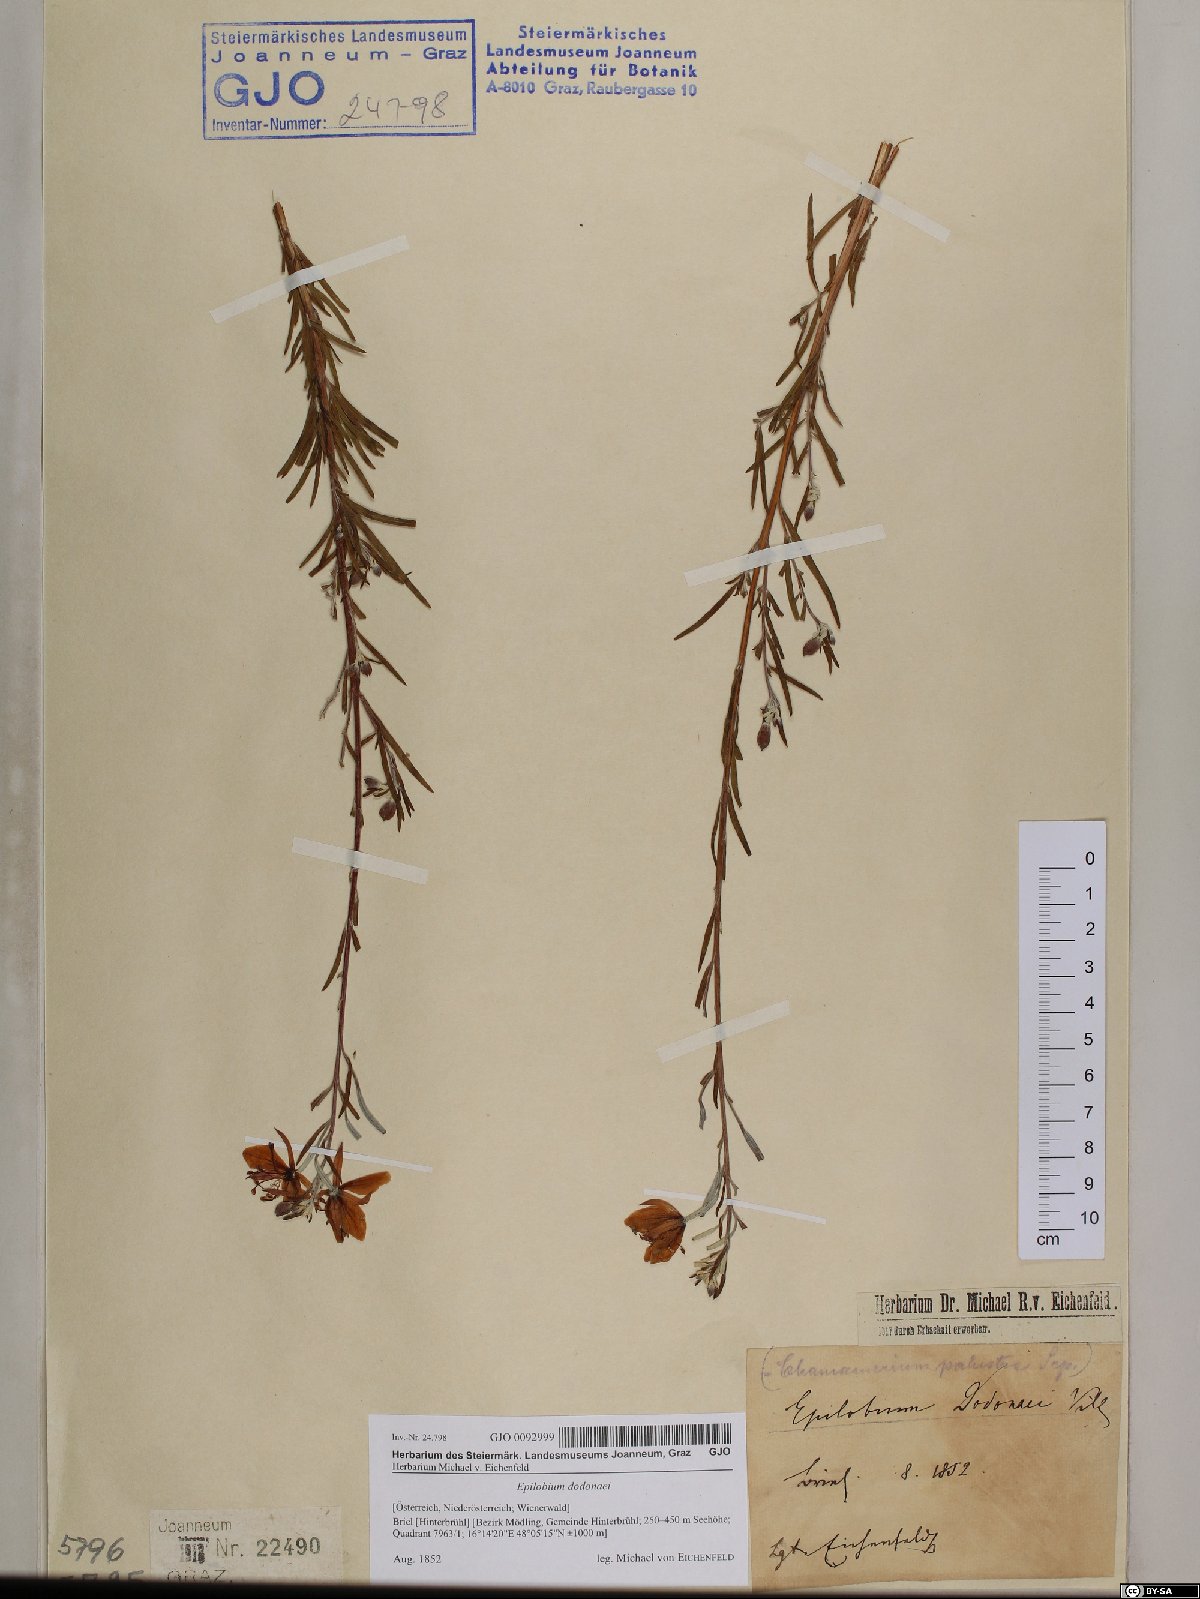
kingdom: Plantae
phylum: Tracheophyta
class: Magnoliopsida
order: Myrtales
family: Onagraceae
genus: Chamaenerion
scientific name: Chamaenerion dodonaei
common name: Rosemary-leaved willowherb
